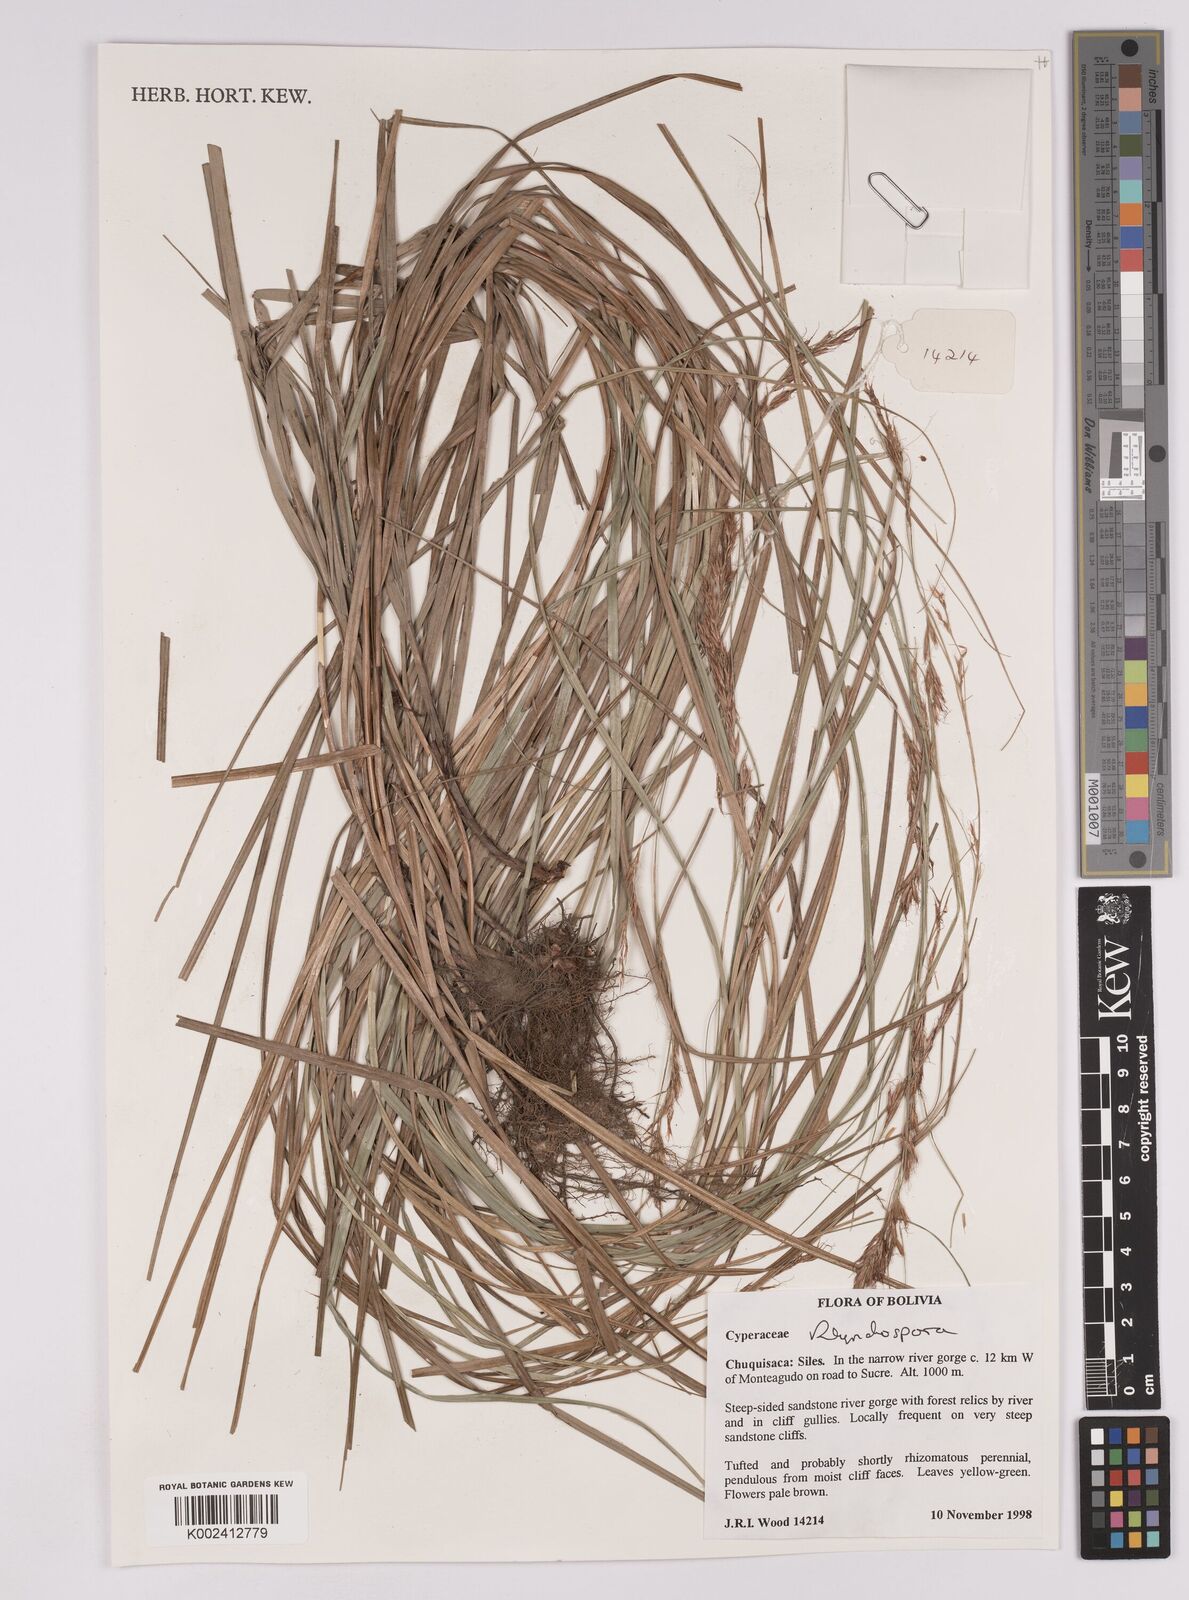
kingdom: Plantae
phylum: Tracheophyta
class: Liliopsida
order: Poales
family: Cyperaceae
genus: Rhynchospora
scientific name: Rhynchospora
